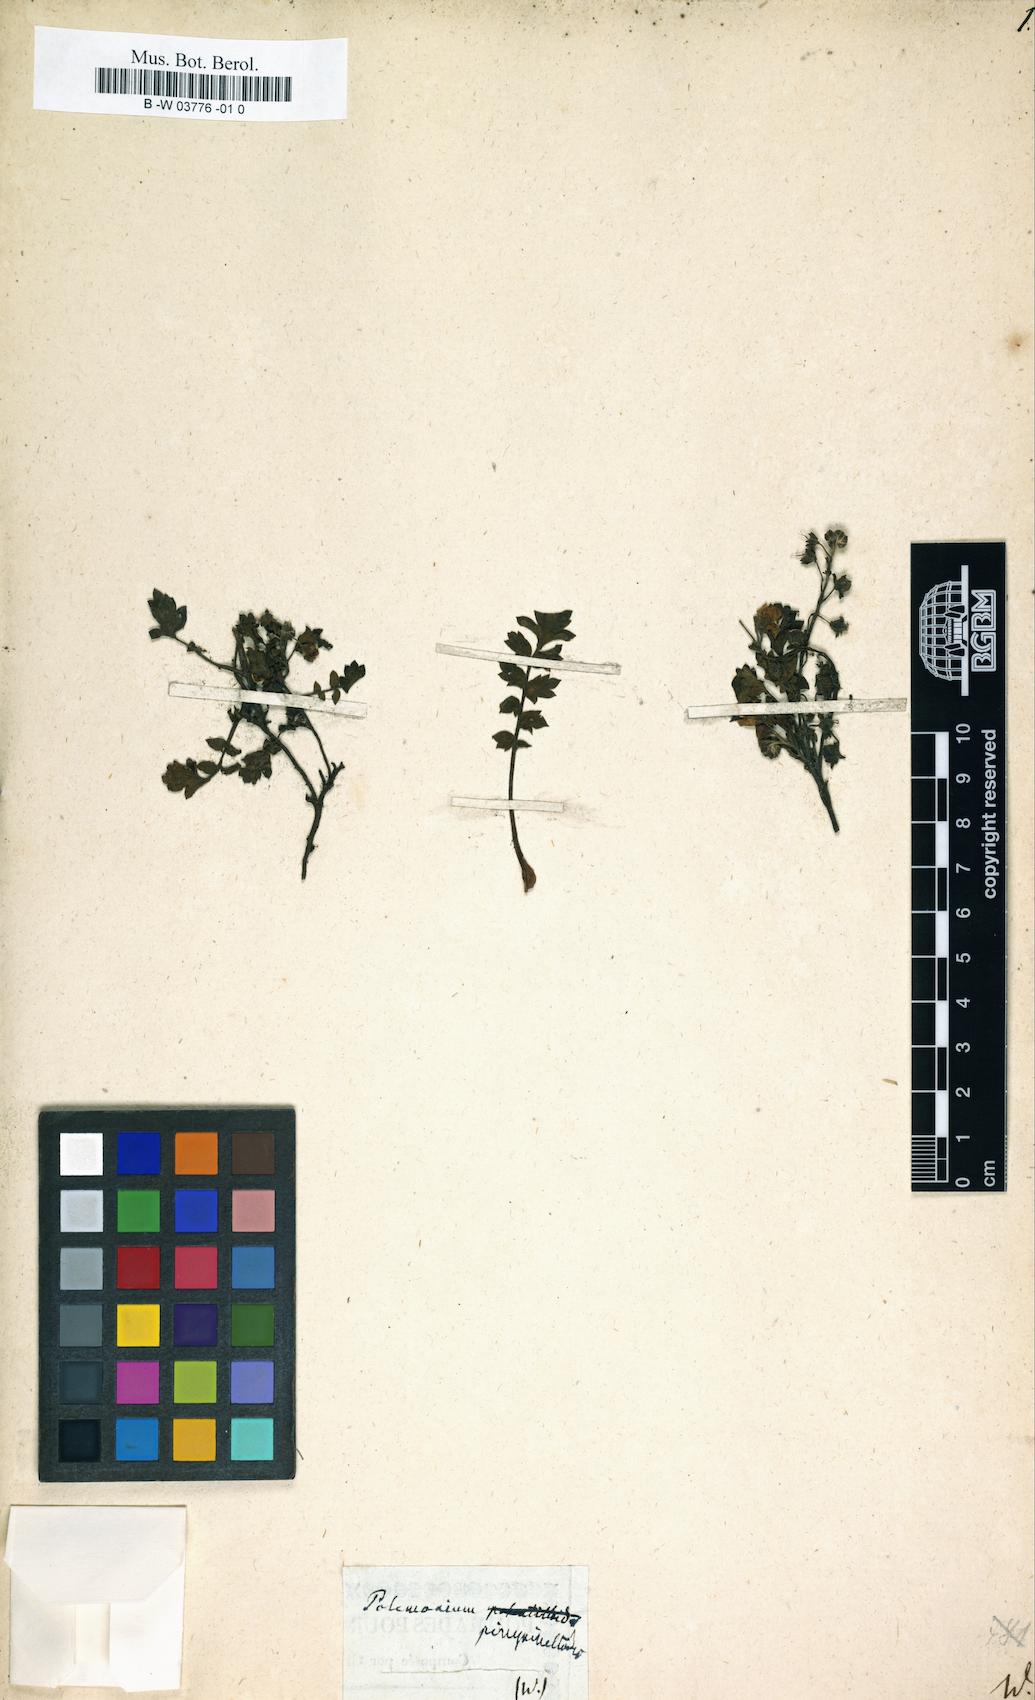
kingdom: Plantae
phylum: Tracheophyta
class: Magnoliopsida
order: Boraginales
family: Hydrophyllaceae
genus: Phacelia
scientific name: Phacelia platycarpa
